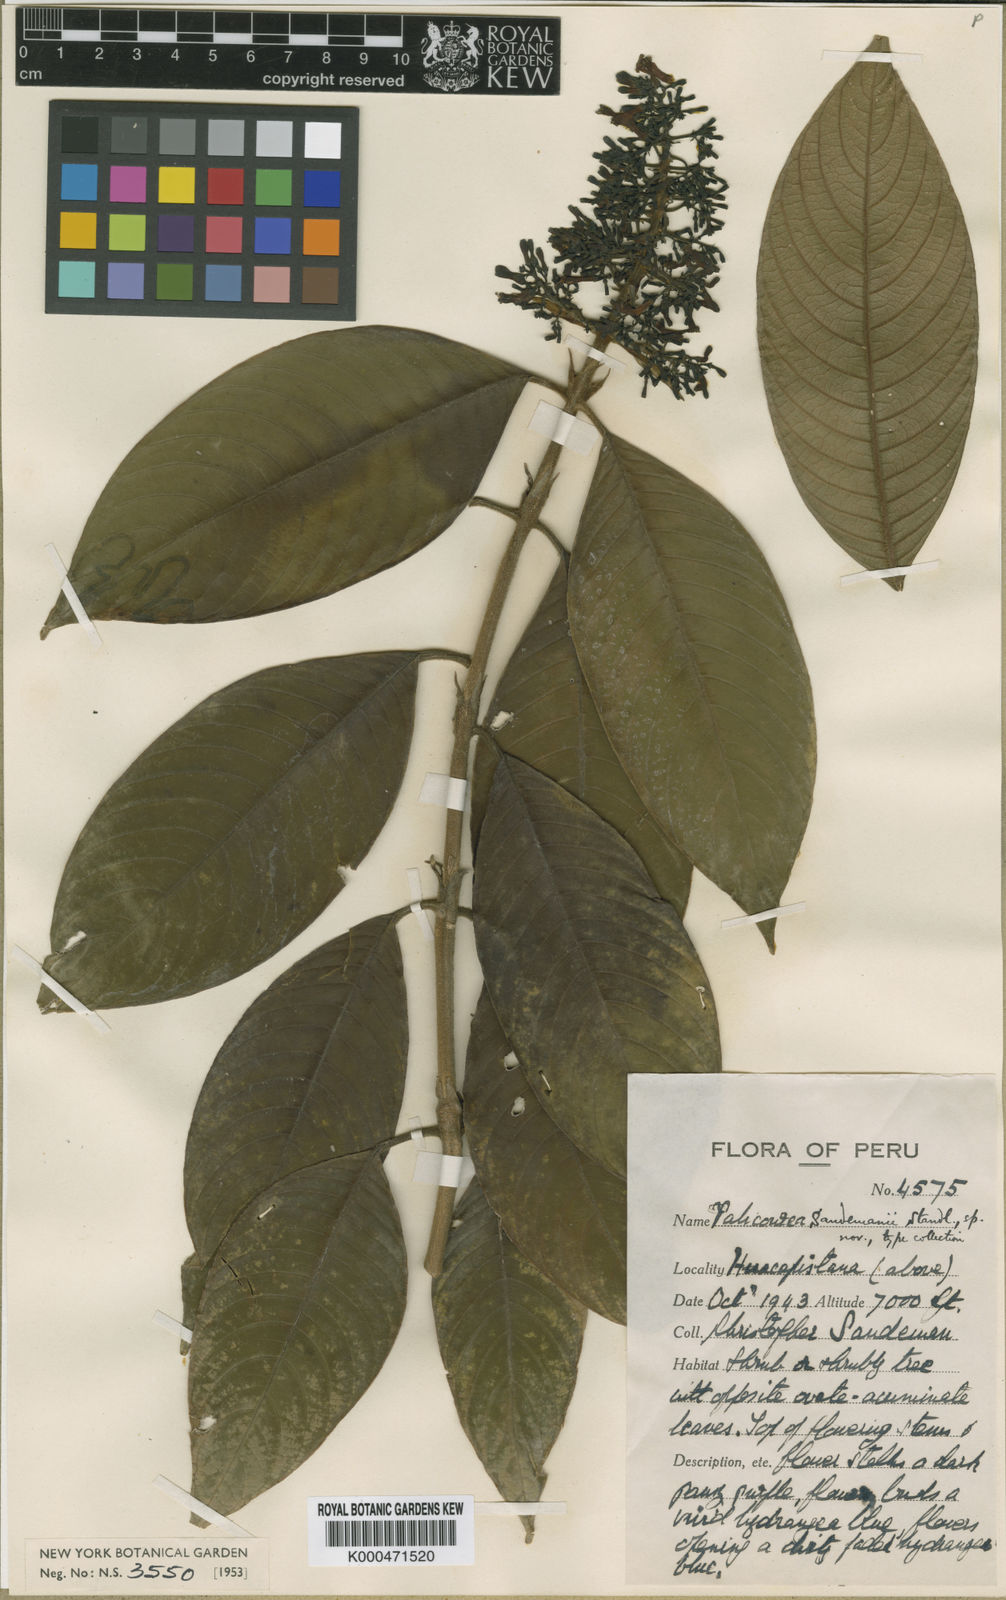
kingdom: Plantae
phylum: Tracheophyta
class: Magnoliopsida
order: Gentianales
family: Rubiaceae
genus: Palicourea
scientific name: Palicourea
